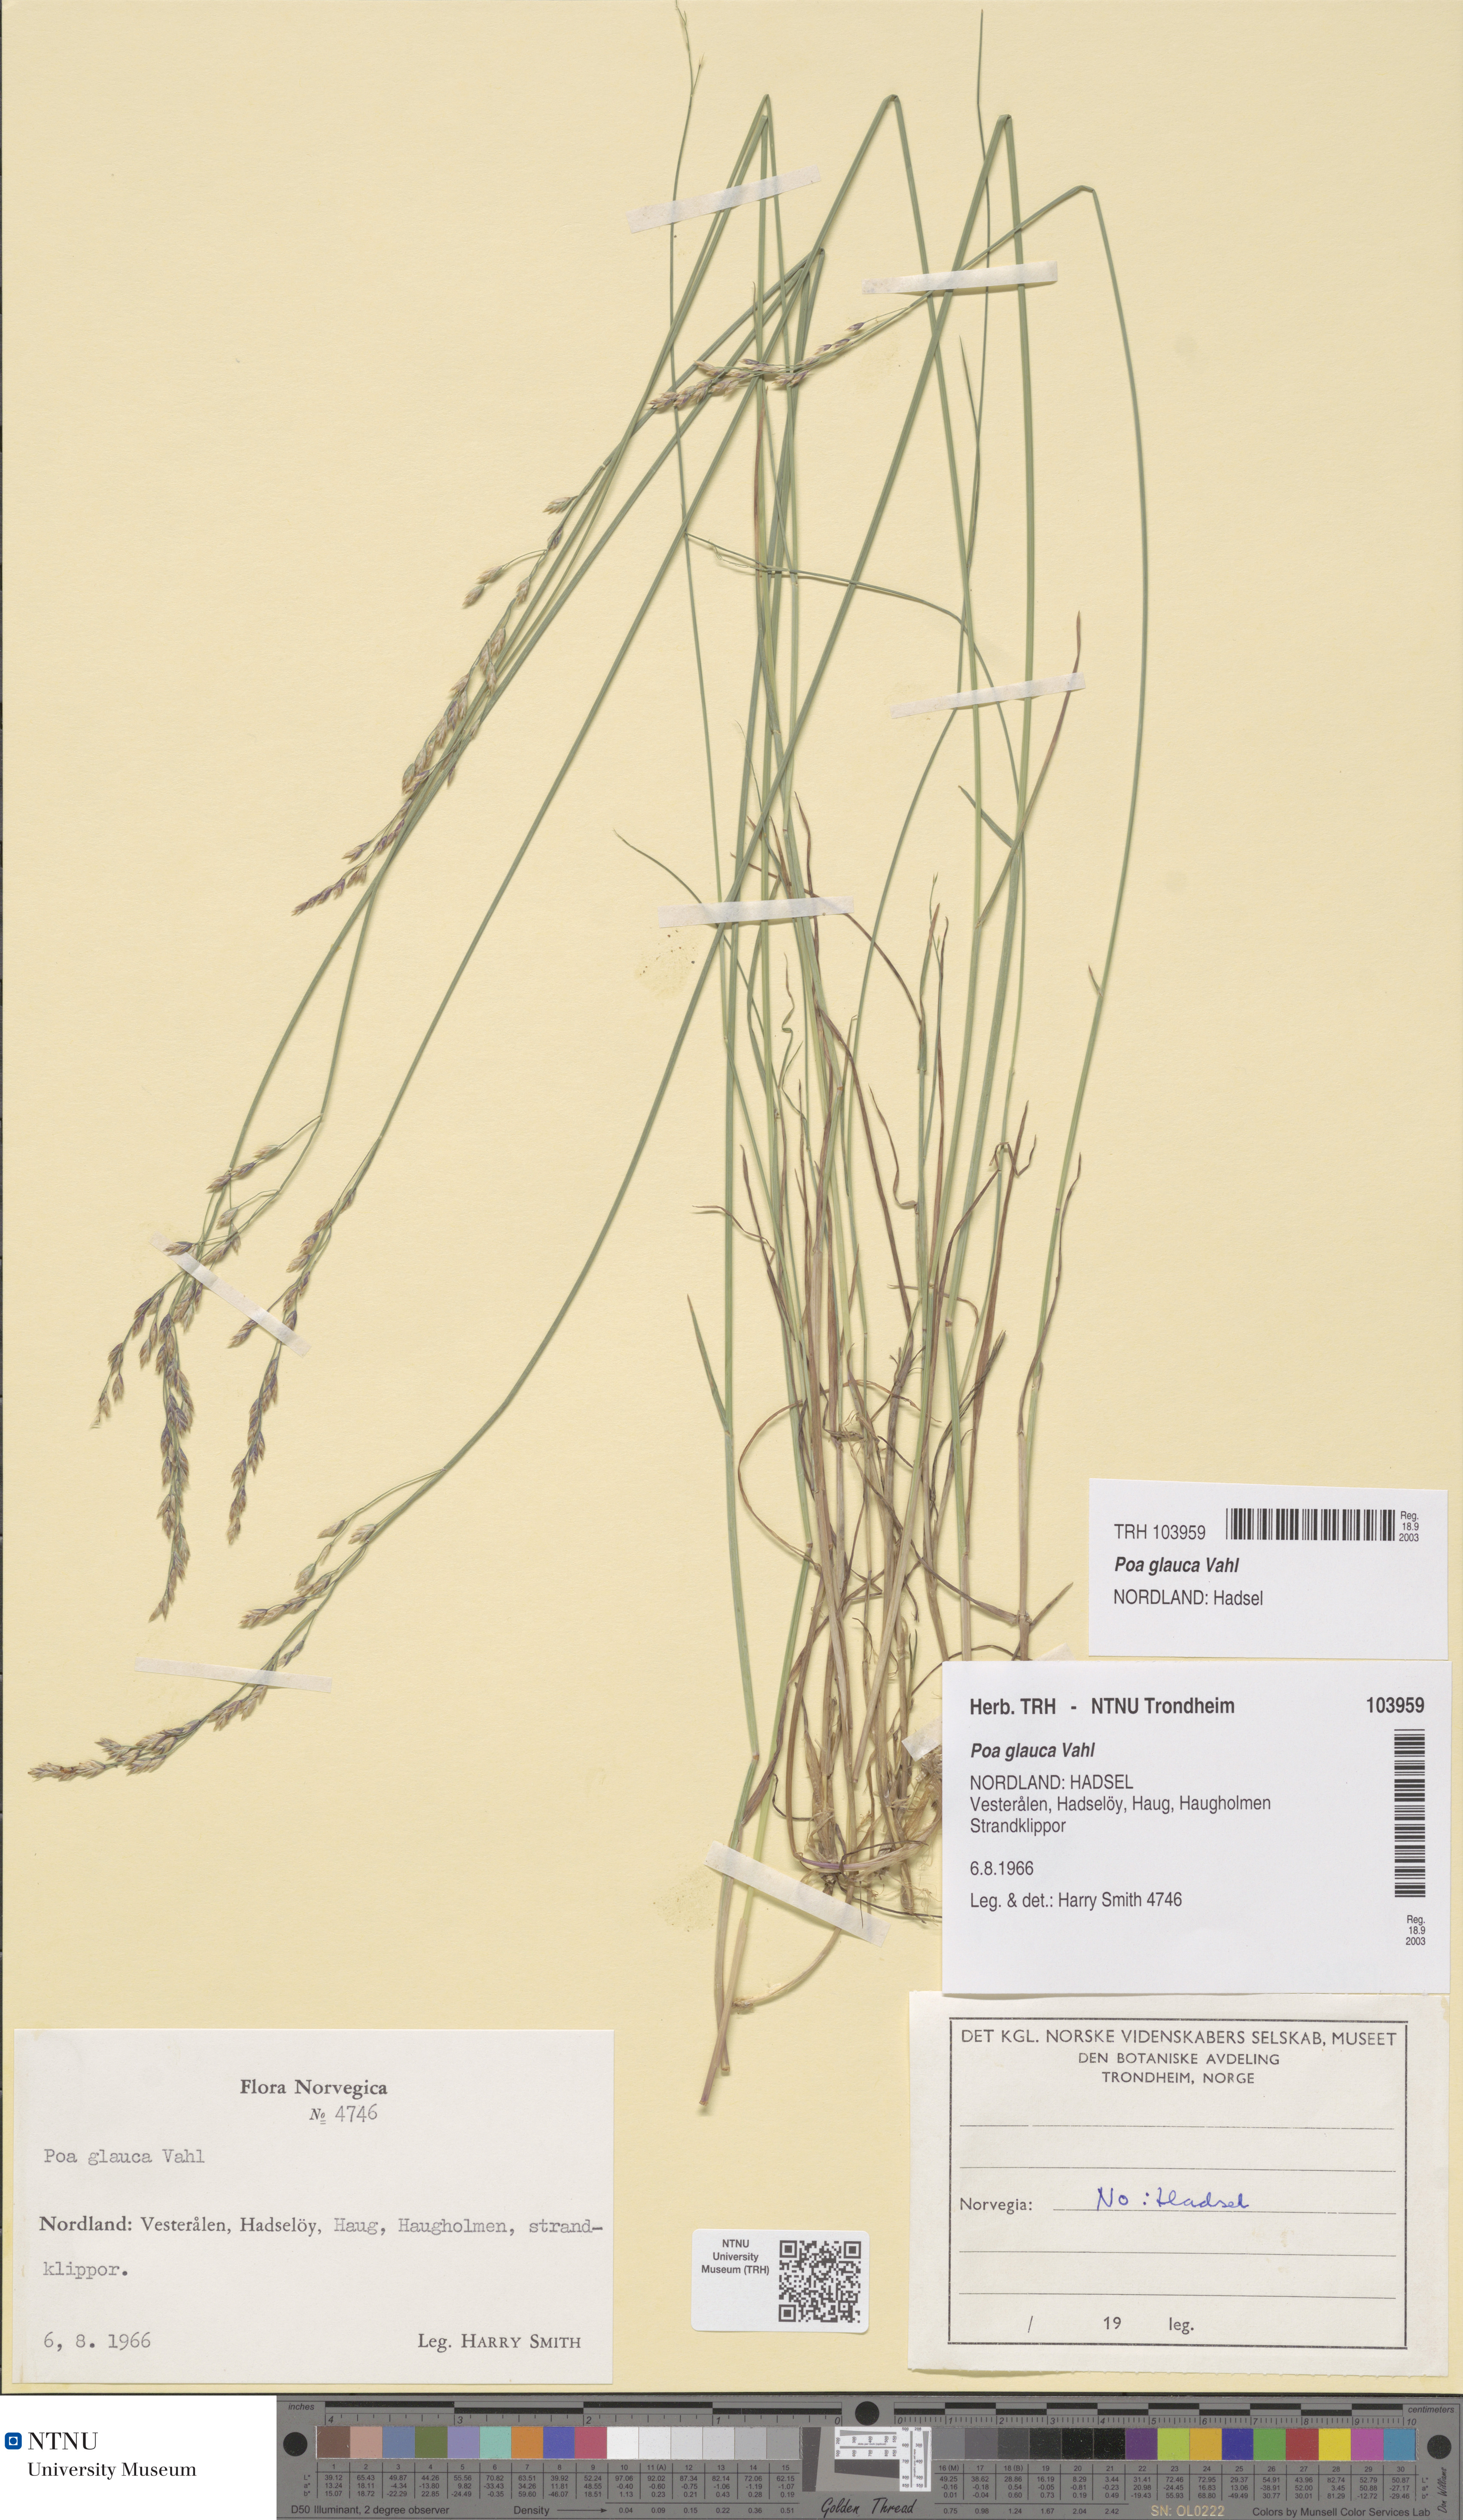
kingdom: Plantae
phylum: Tracheophyta
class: Liliopsida
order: Poales
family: Poaceae
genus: Poa
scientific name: Poa glauca
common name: Glaucous bluegrass
